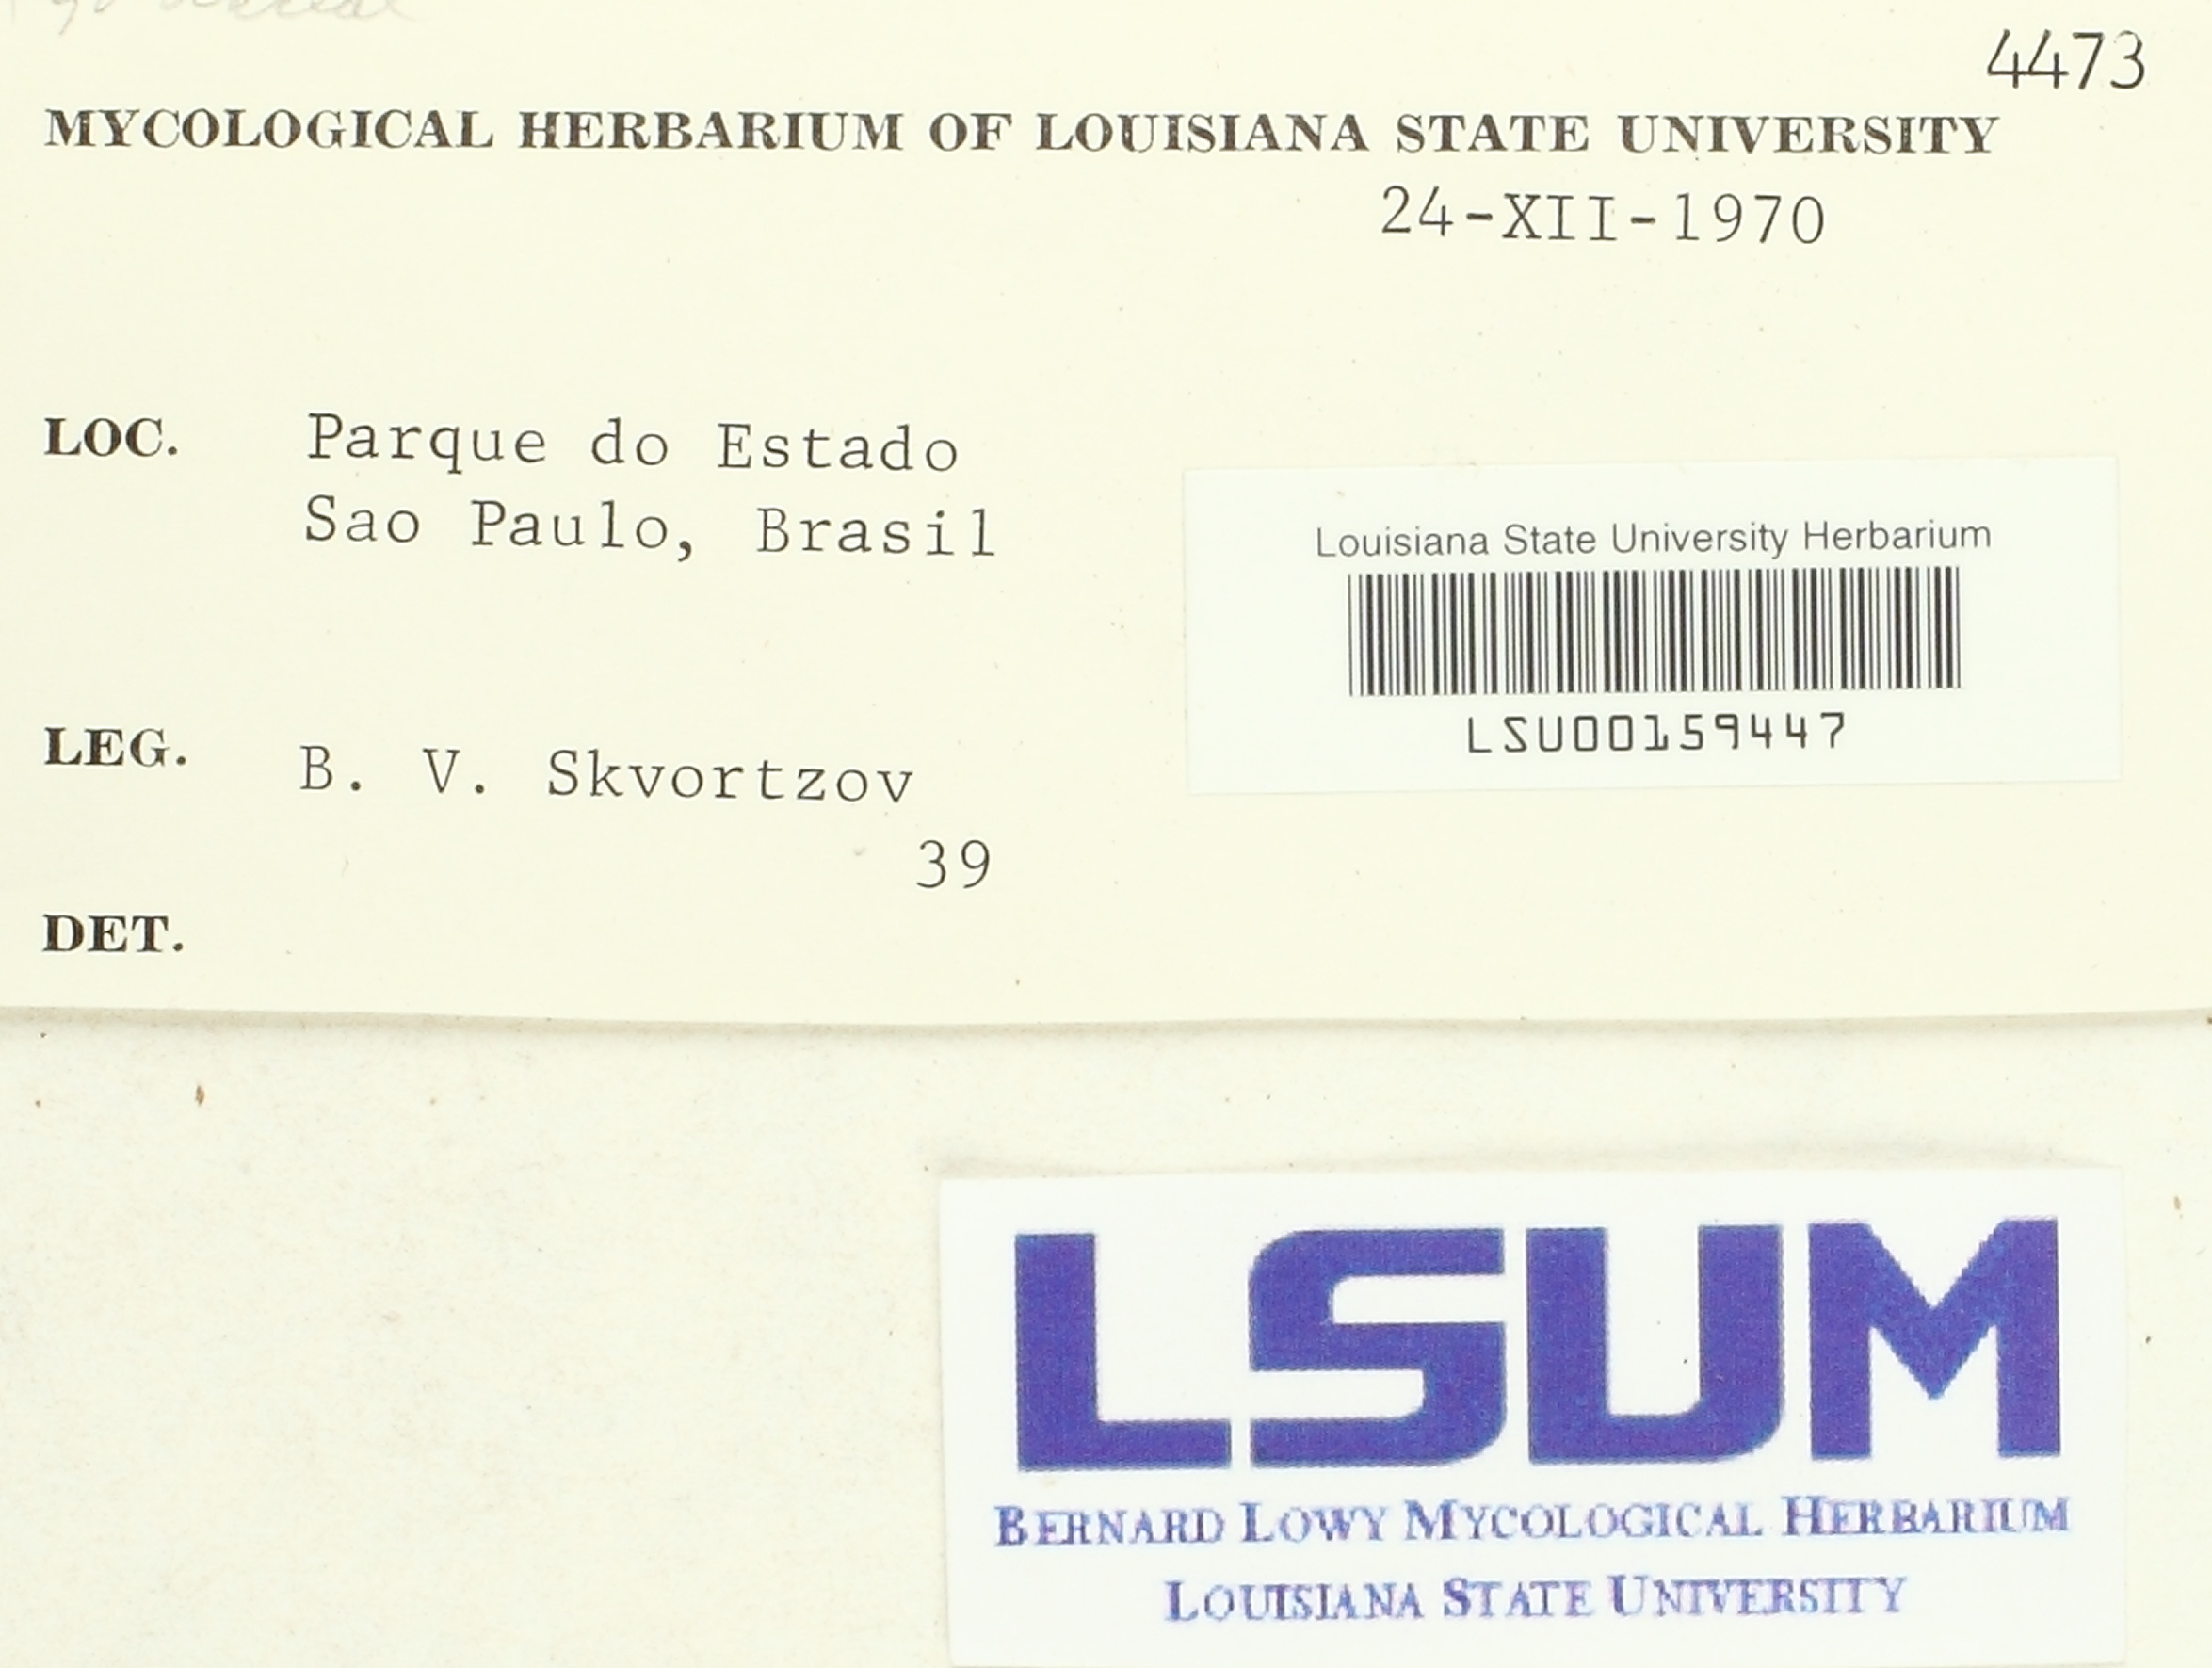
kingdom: Fungi
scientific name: Fungi
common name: Fungi
